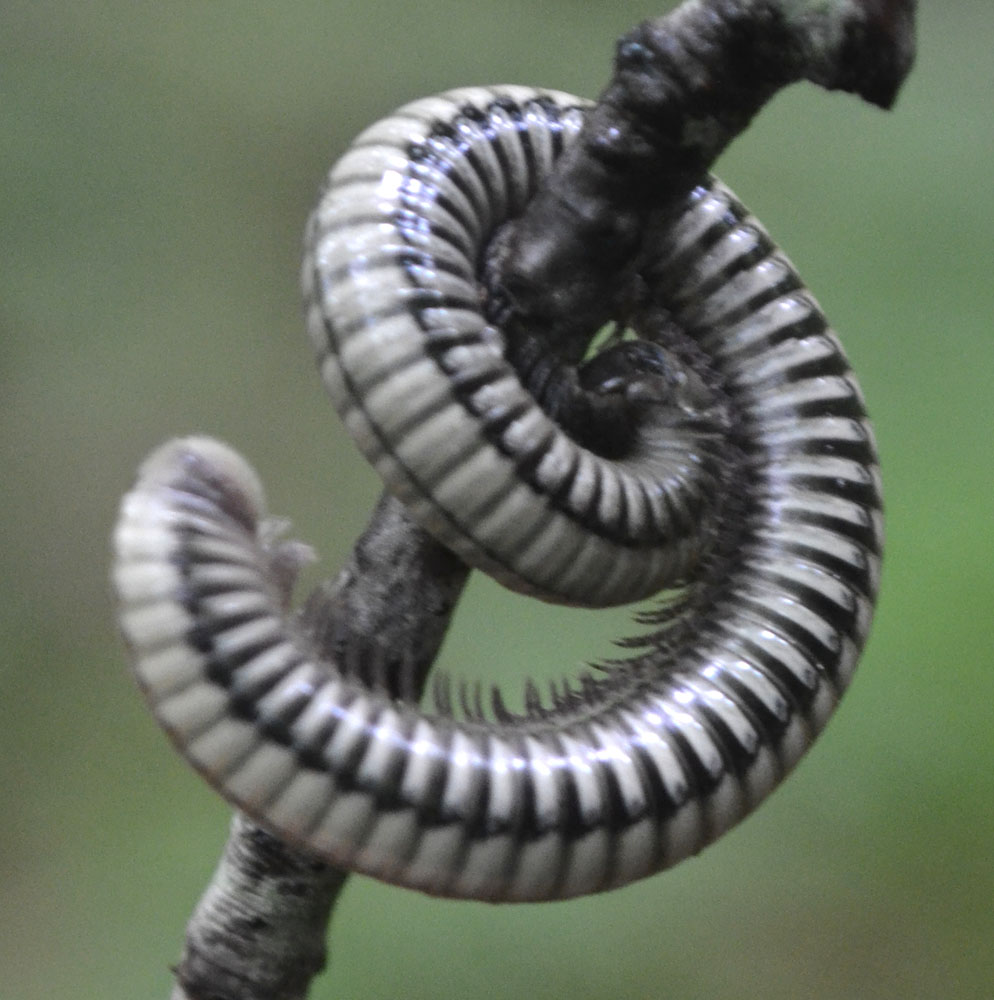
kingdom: Animalia
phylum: Arthropoda
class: Diplopoda
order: Julida
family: Julidae
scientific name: Julidae
